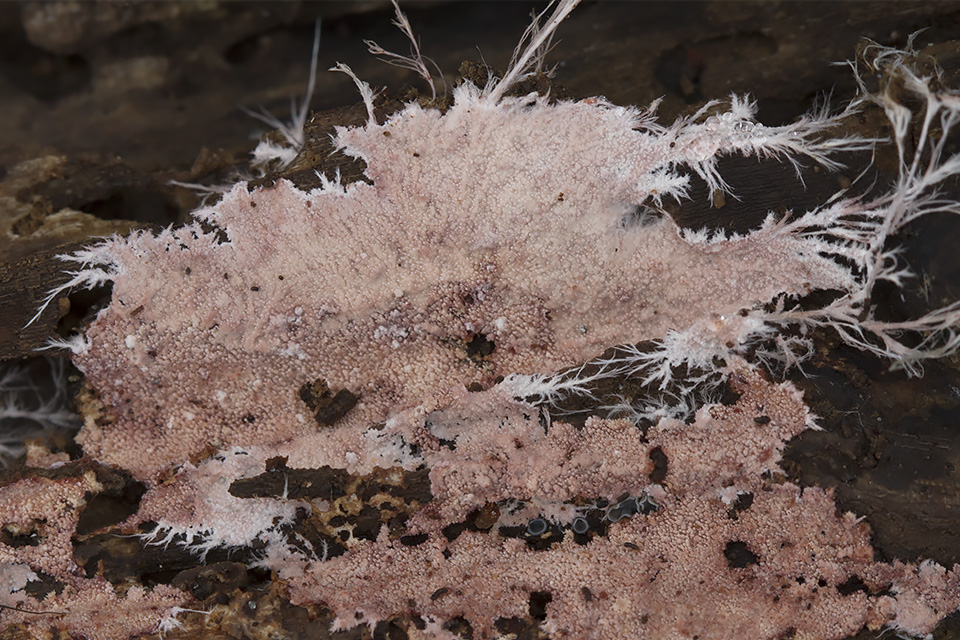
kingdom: Fungi
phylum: Basidiomycota
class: Agaricomycetes
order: Polyporales
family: Steccherinaceae
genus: Steccherinum
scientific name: Steccherinum fimbriatum
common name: trådet skønpig
